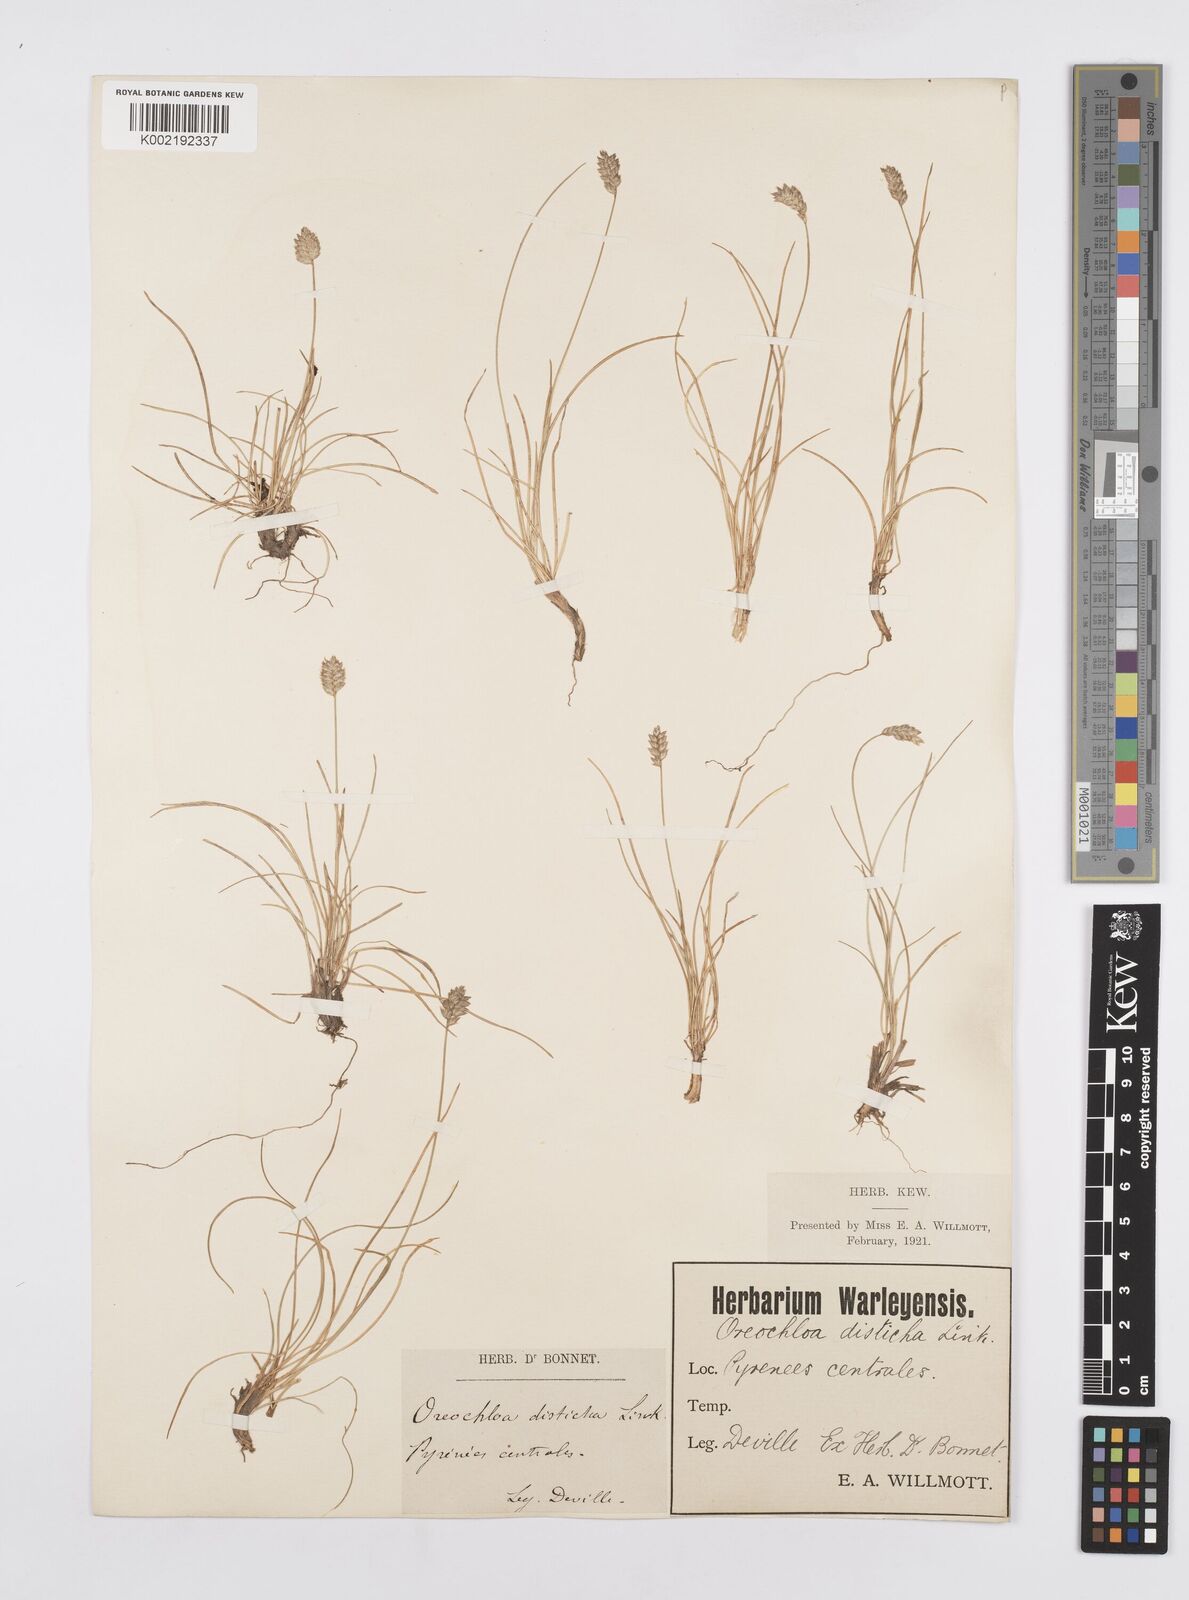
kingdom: Plantae
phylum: Tracheophyta
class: Liliopsida
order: Poales
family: Poaceae
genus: Oreochloa
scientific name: Oreochloa elegans
